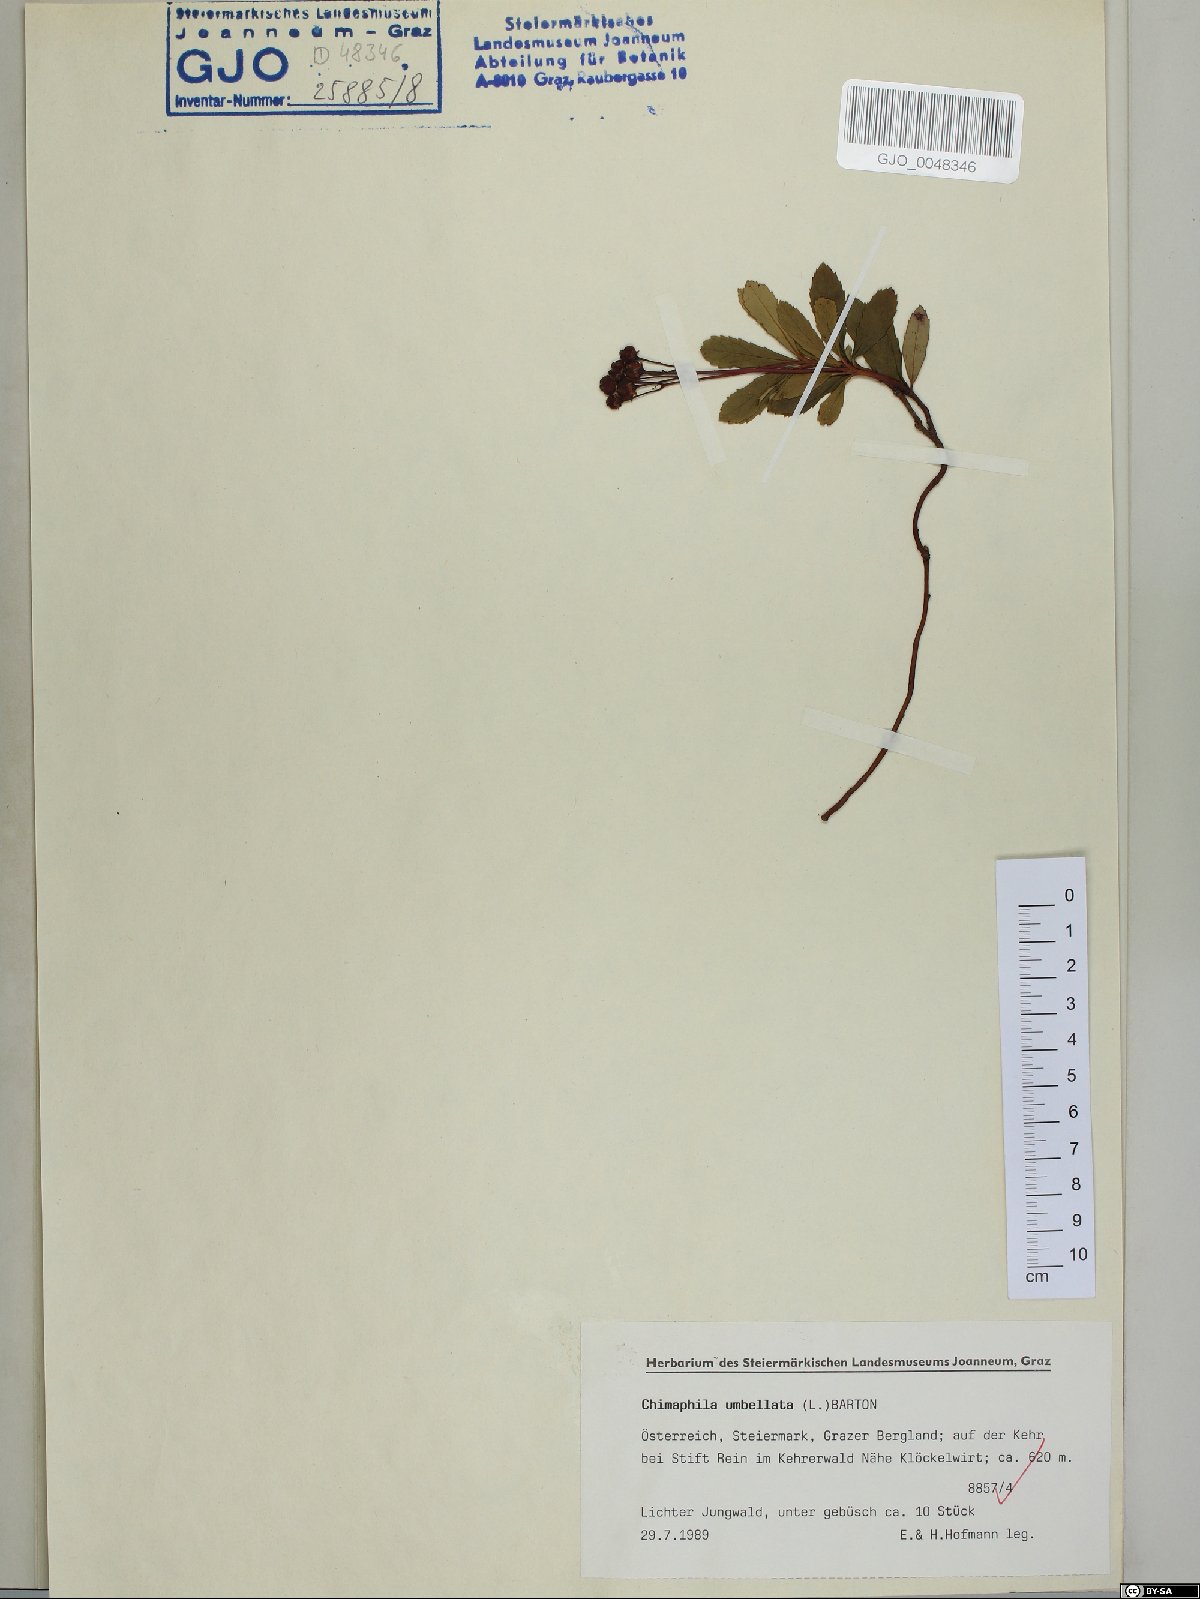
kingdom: Plantae
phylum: Tracheophyta
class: Magnoliopsida
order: Ericales
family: Ericaceae
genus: Chimaphila
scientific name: Chimaphila umbellata
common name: Pipsissewa
